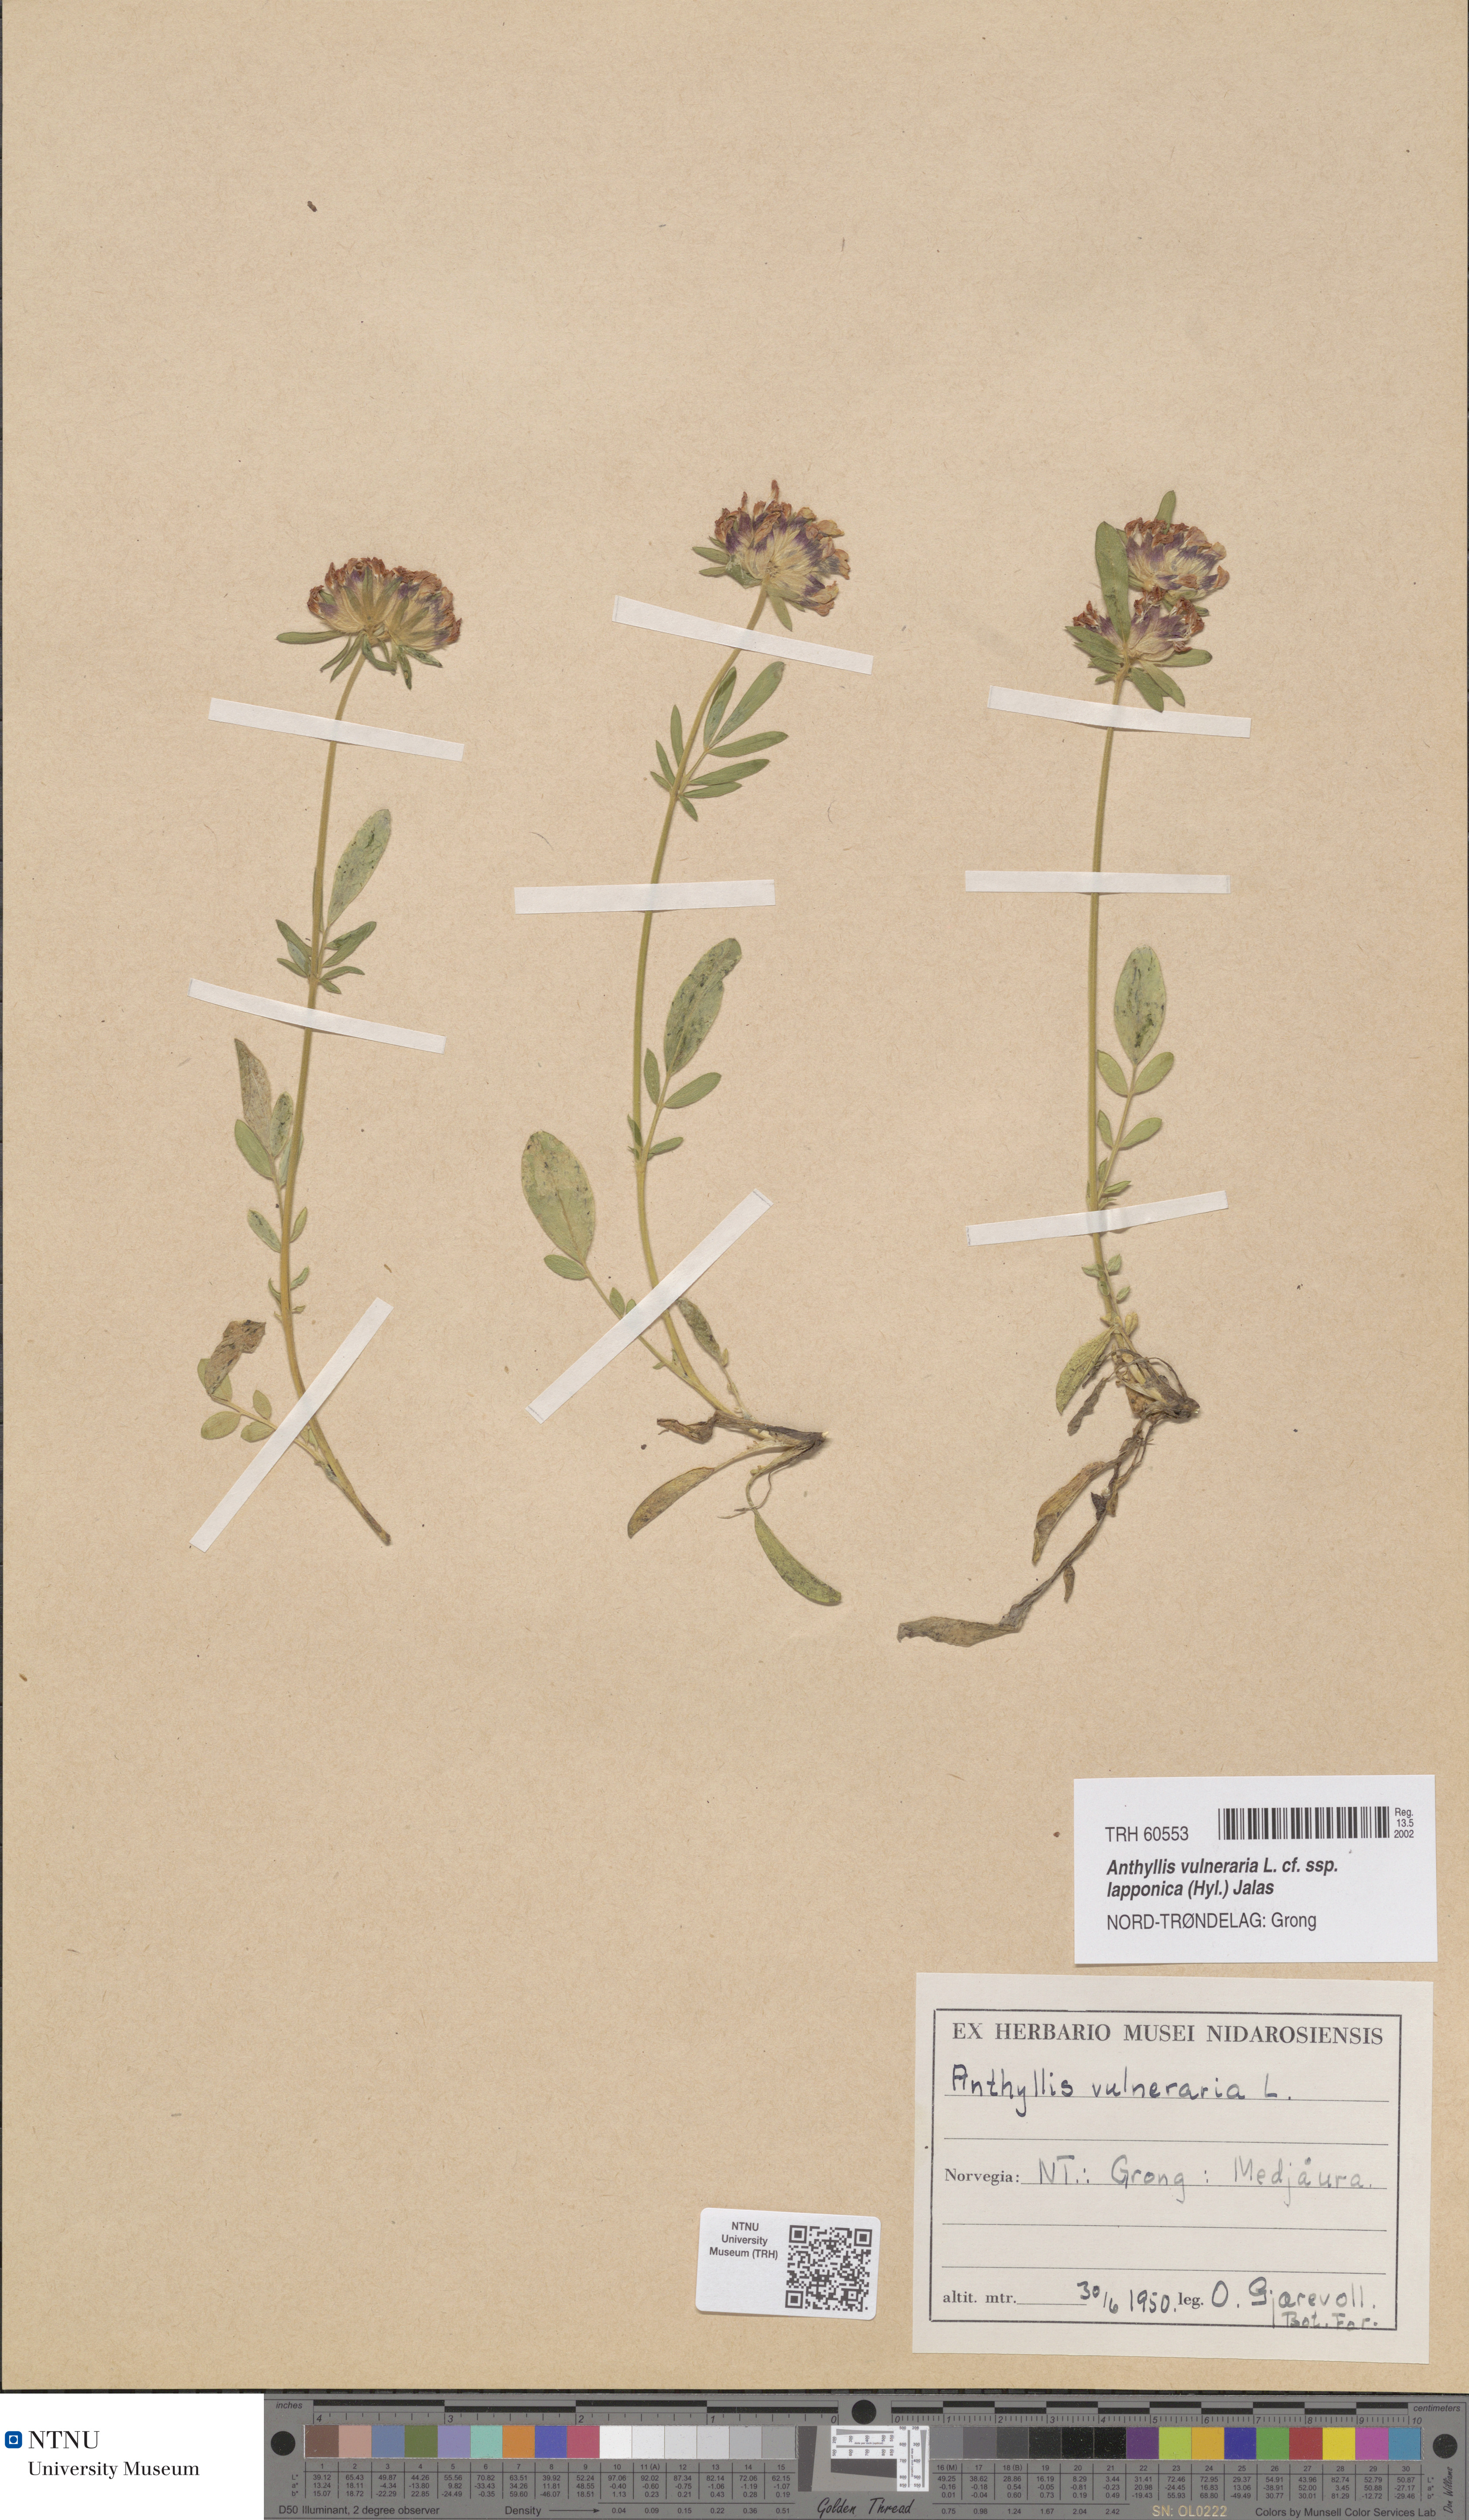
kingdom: Plantae
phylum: Tracheophyta
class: Magnoliopsida
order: Fabales
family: Fabaceae
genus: Anthyllis
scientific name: Anthyllis vulneraria
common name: Kidney vetch
